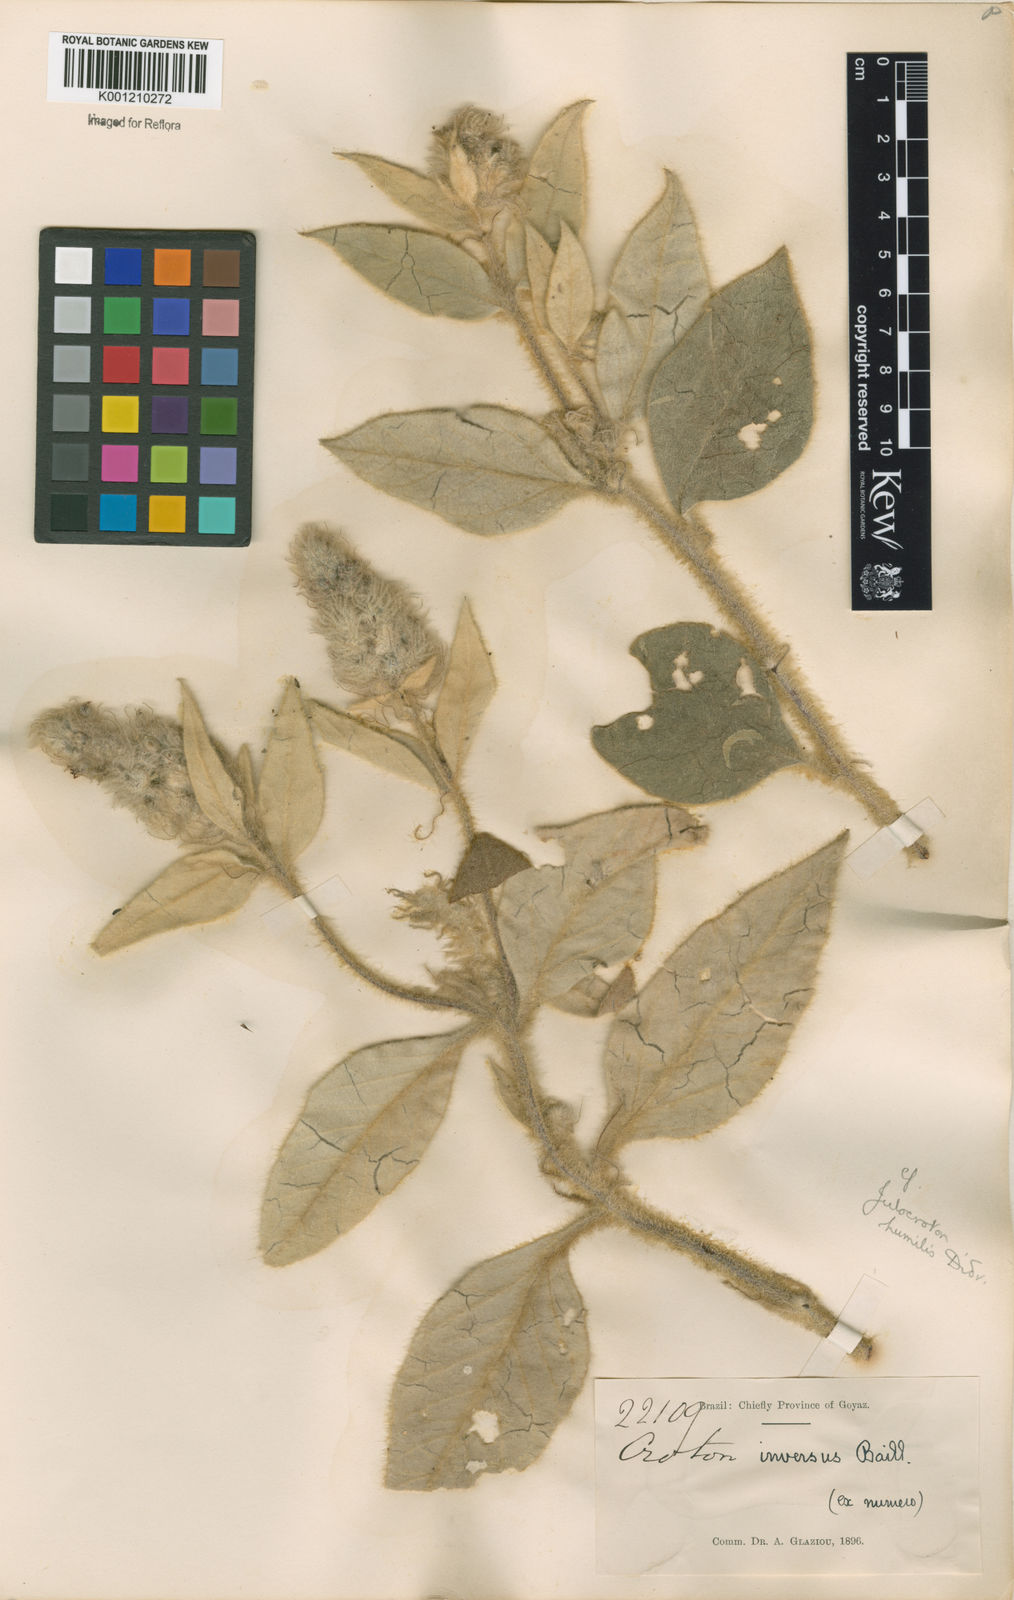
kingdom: Plantae
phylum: Tracheophyta
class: Magnoliopsida
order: Malpighiales
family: Euphorbiaceae
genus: Croton
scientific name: Croton solanaceus
